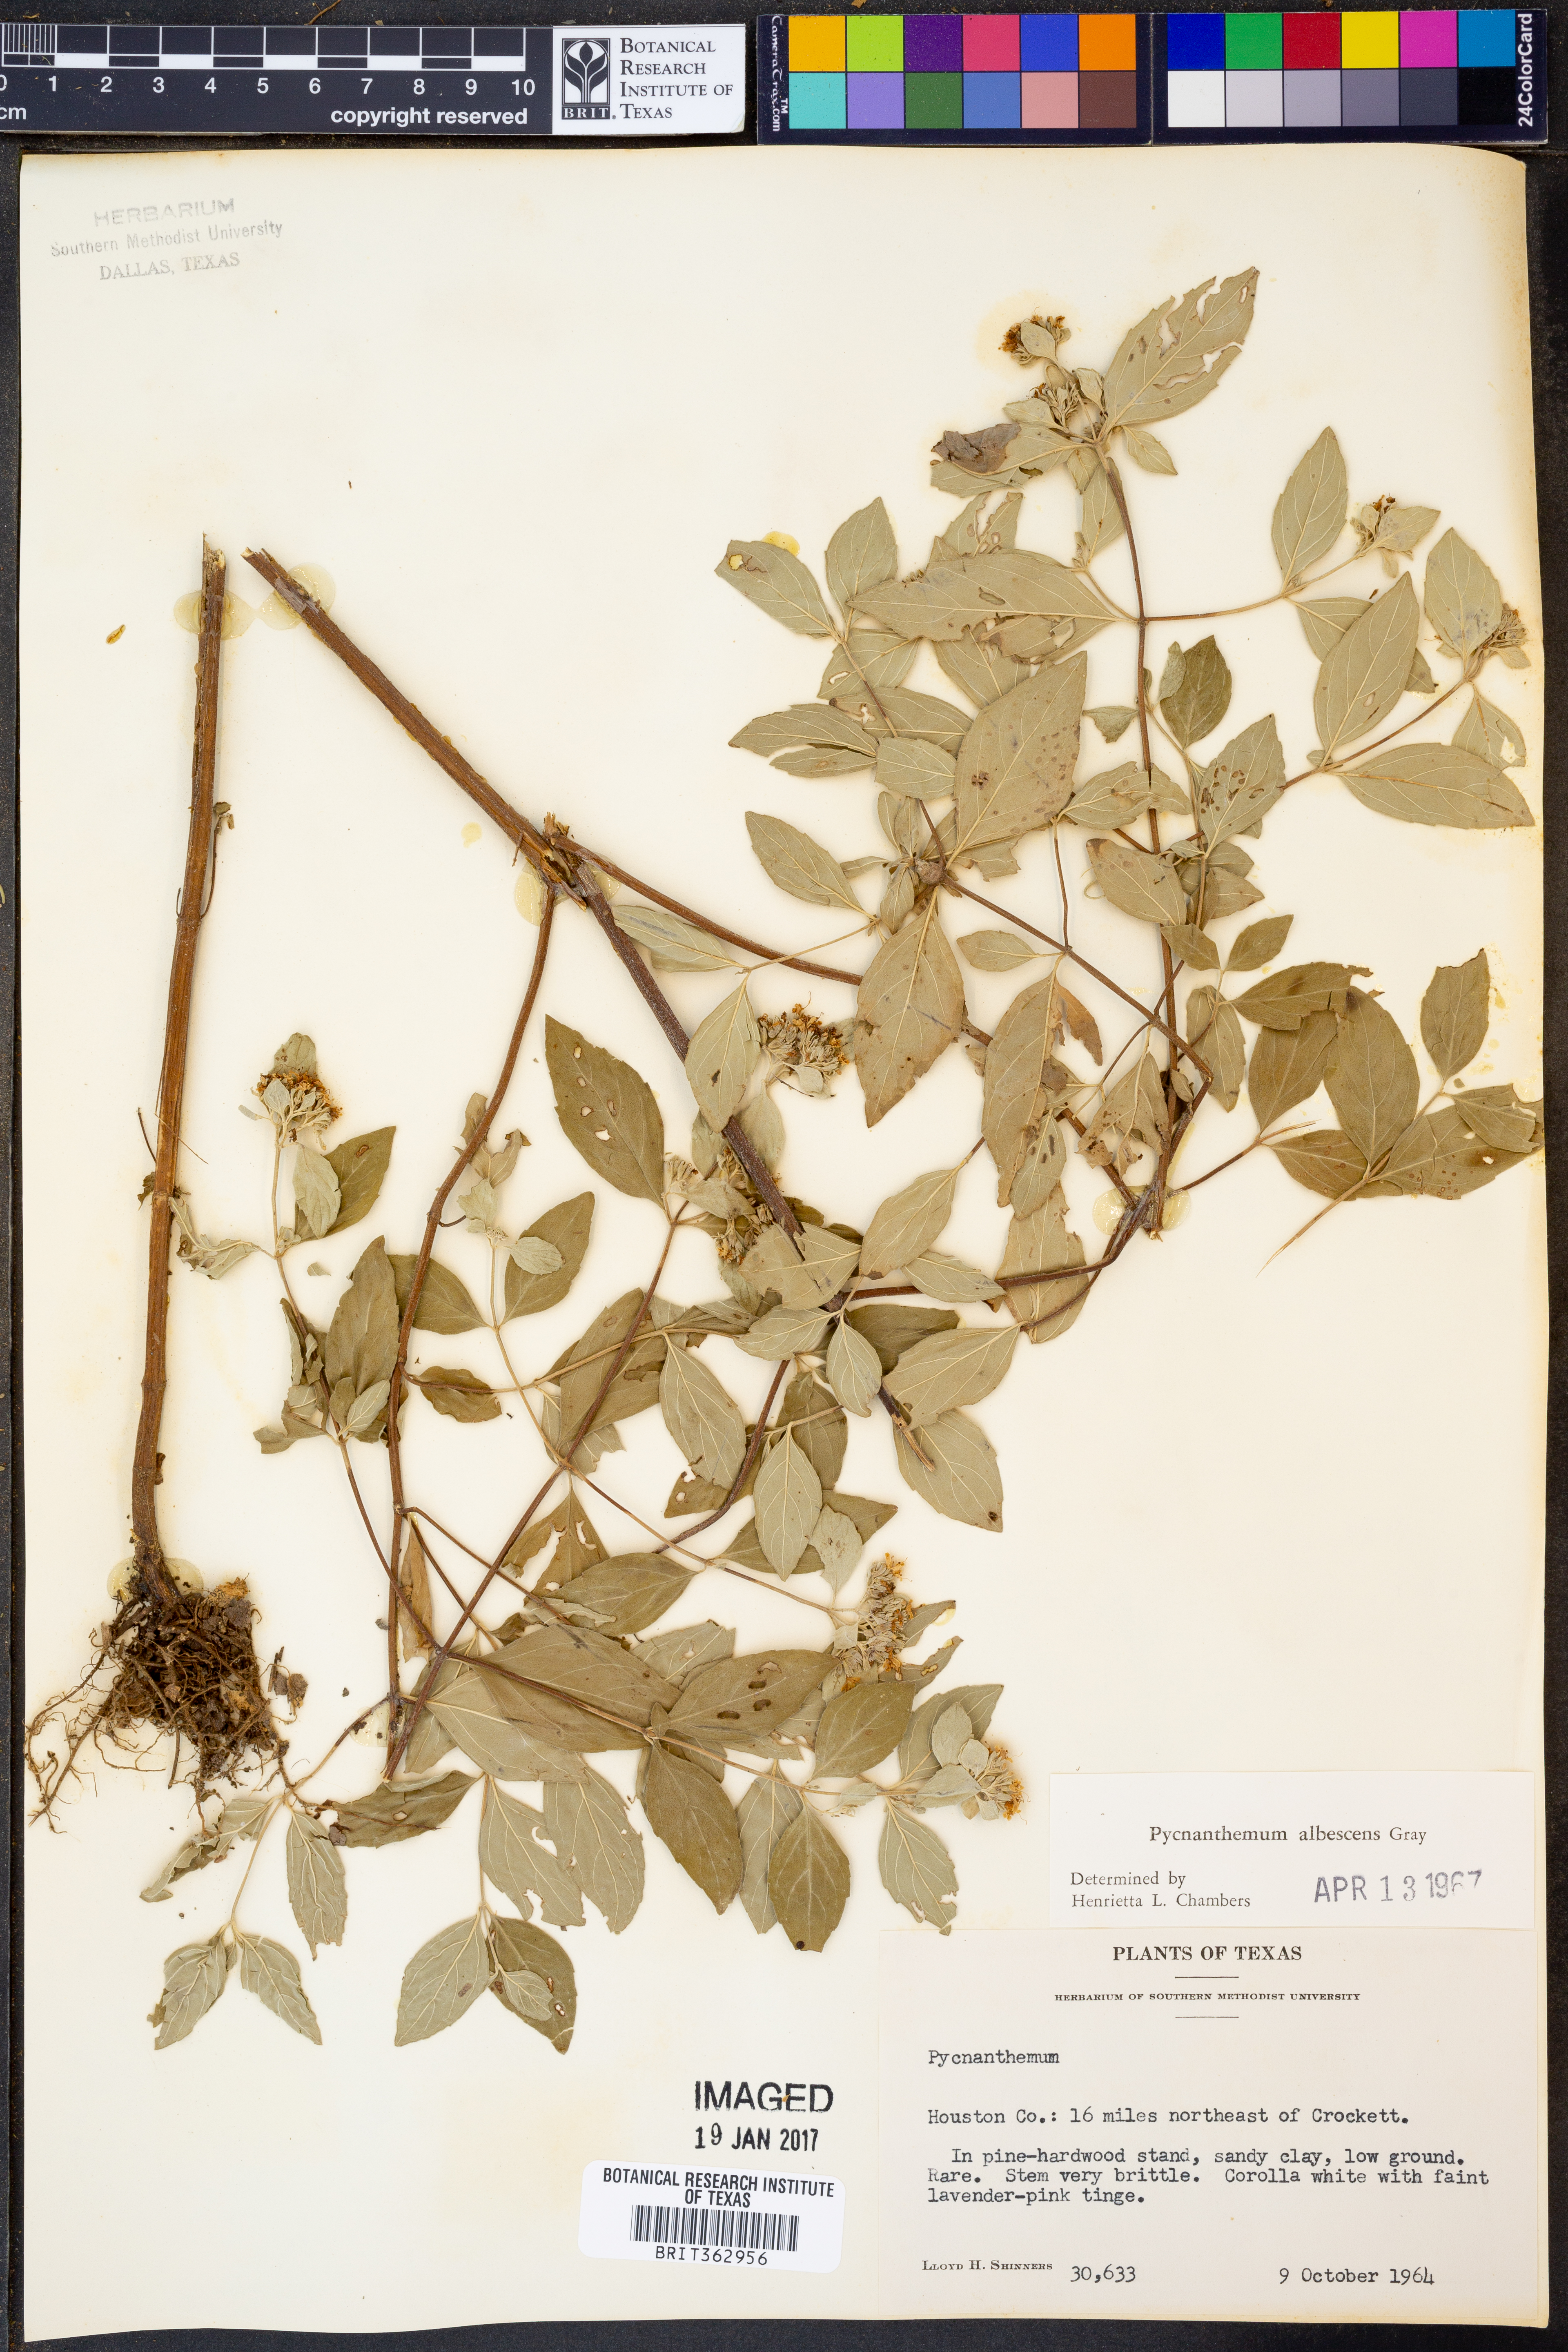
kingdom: Plantae
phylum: Tracheophyta
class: Magnoliopsida
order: Lamiales
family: Lamiaceae
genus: Pycnanthemum
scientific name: Pycnanthemum albescens
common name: White-leaf mountain-mint
